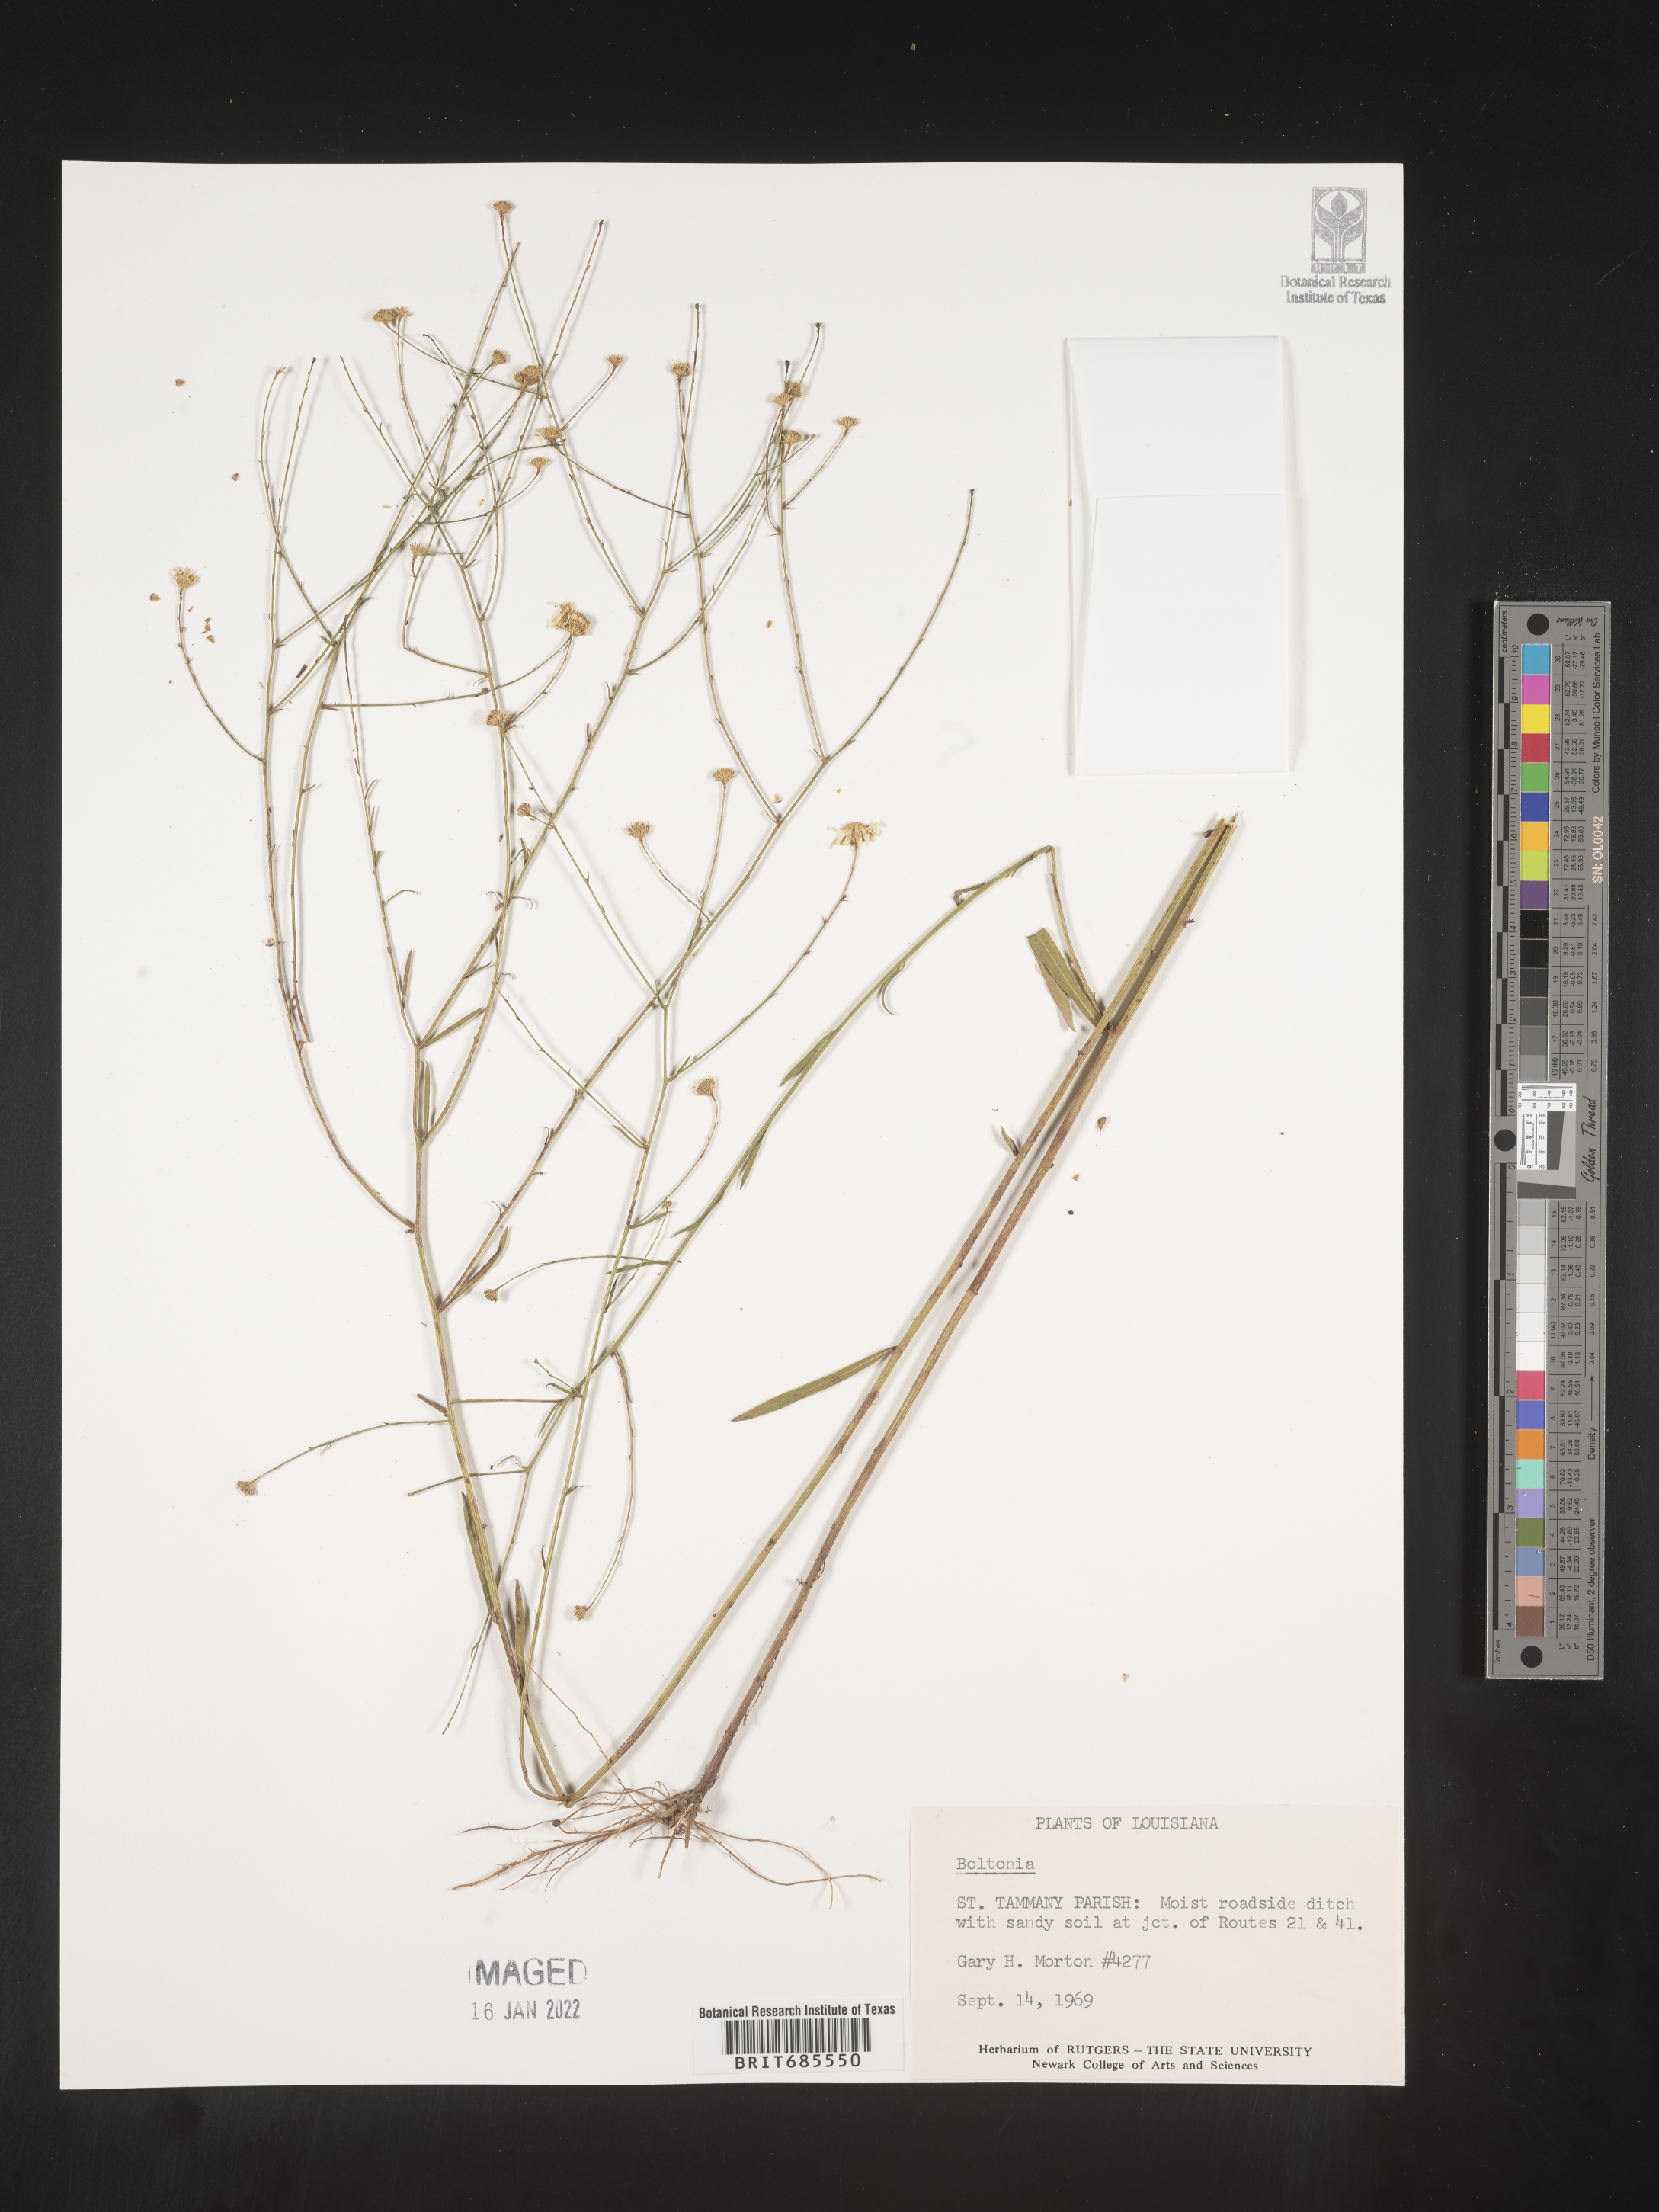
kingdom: Plantae
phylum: Tracheophyta
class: Magnoliopsida
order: Asterales
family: Asteraceae
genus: Boltonia
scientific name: Boltonia
